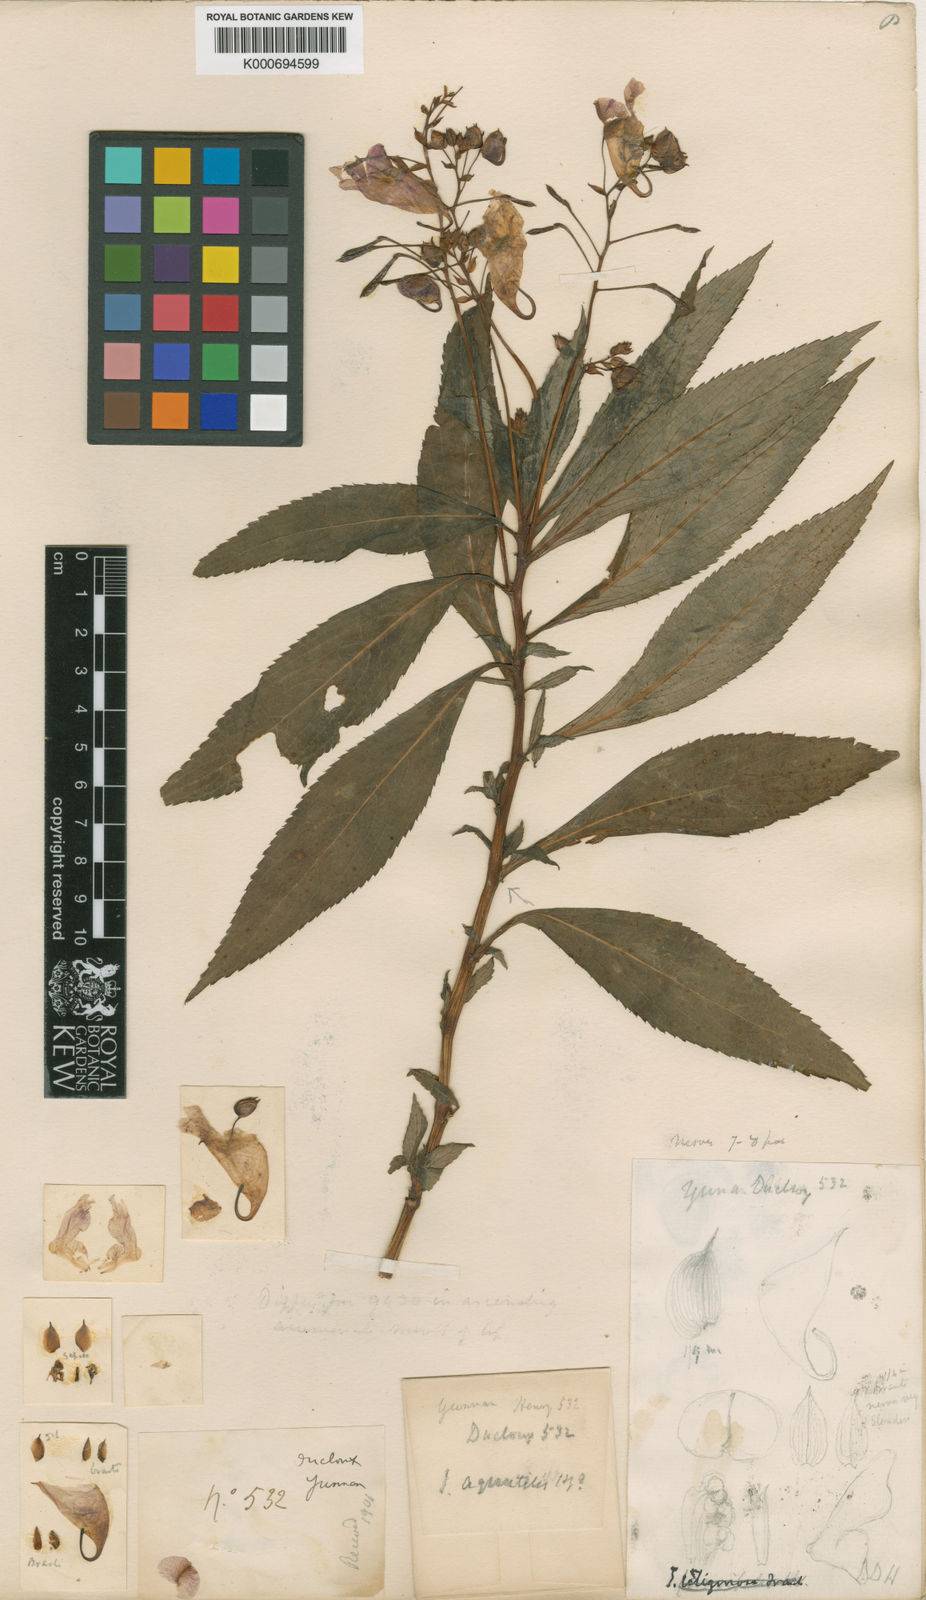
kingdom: Plantae
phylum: Tracheophyta
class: Magnoliopsida
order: Ericales
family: Balsaminaceae
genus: Impatiens
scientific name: Impatiens aquatilis
